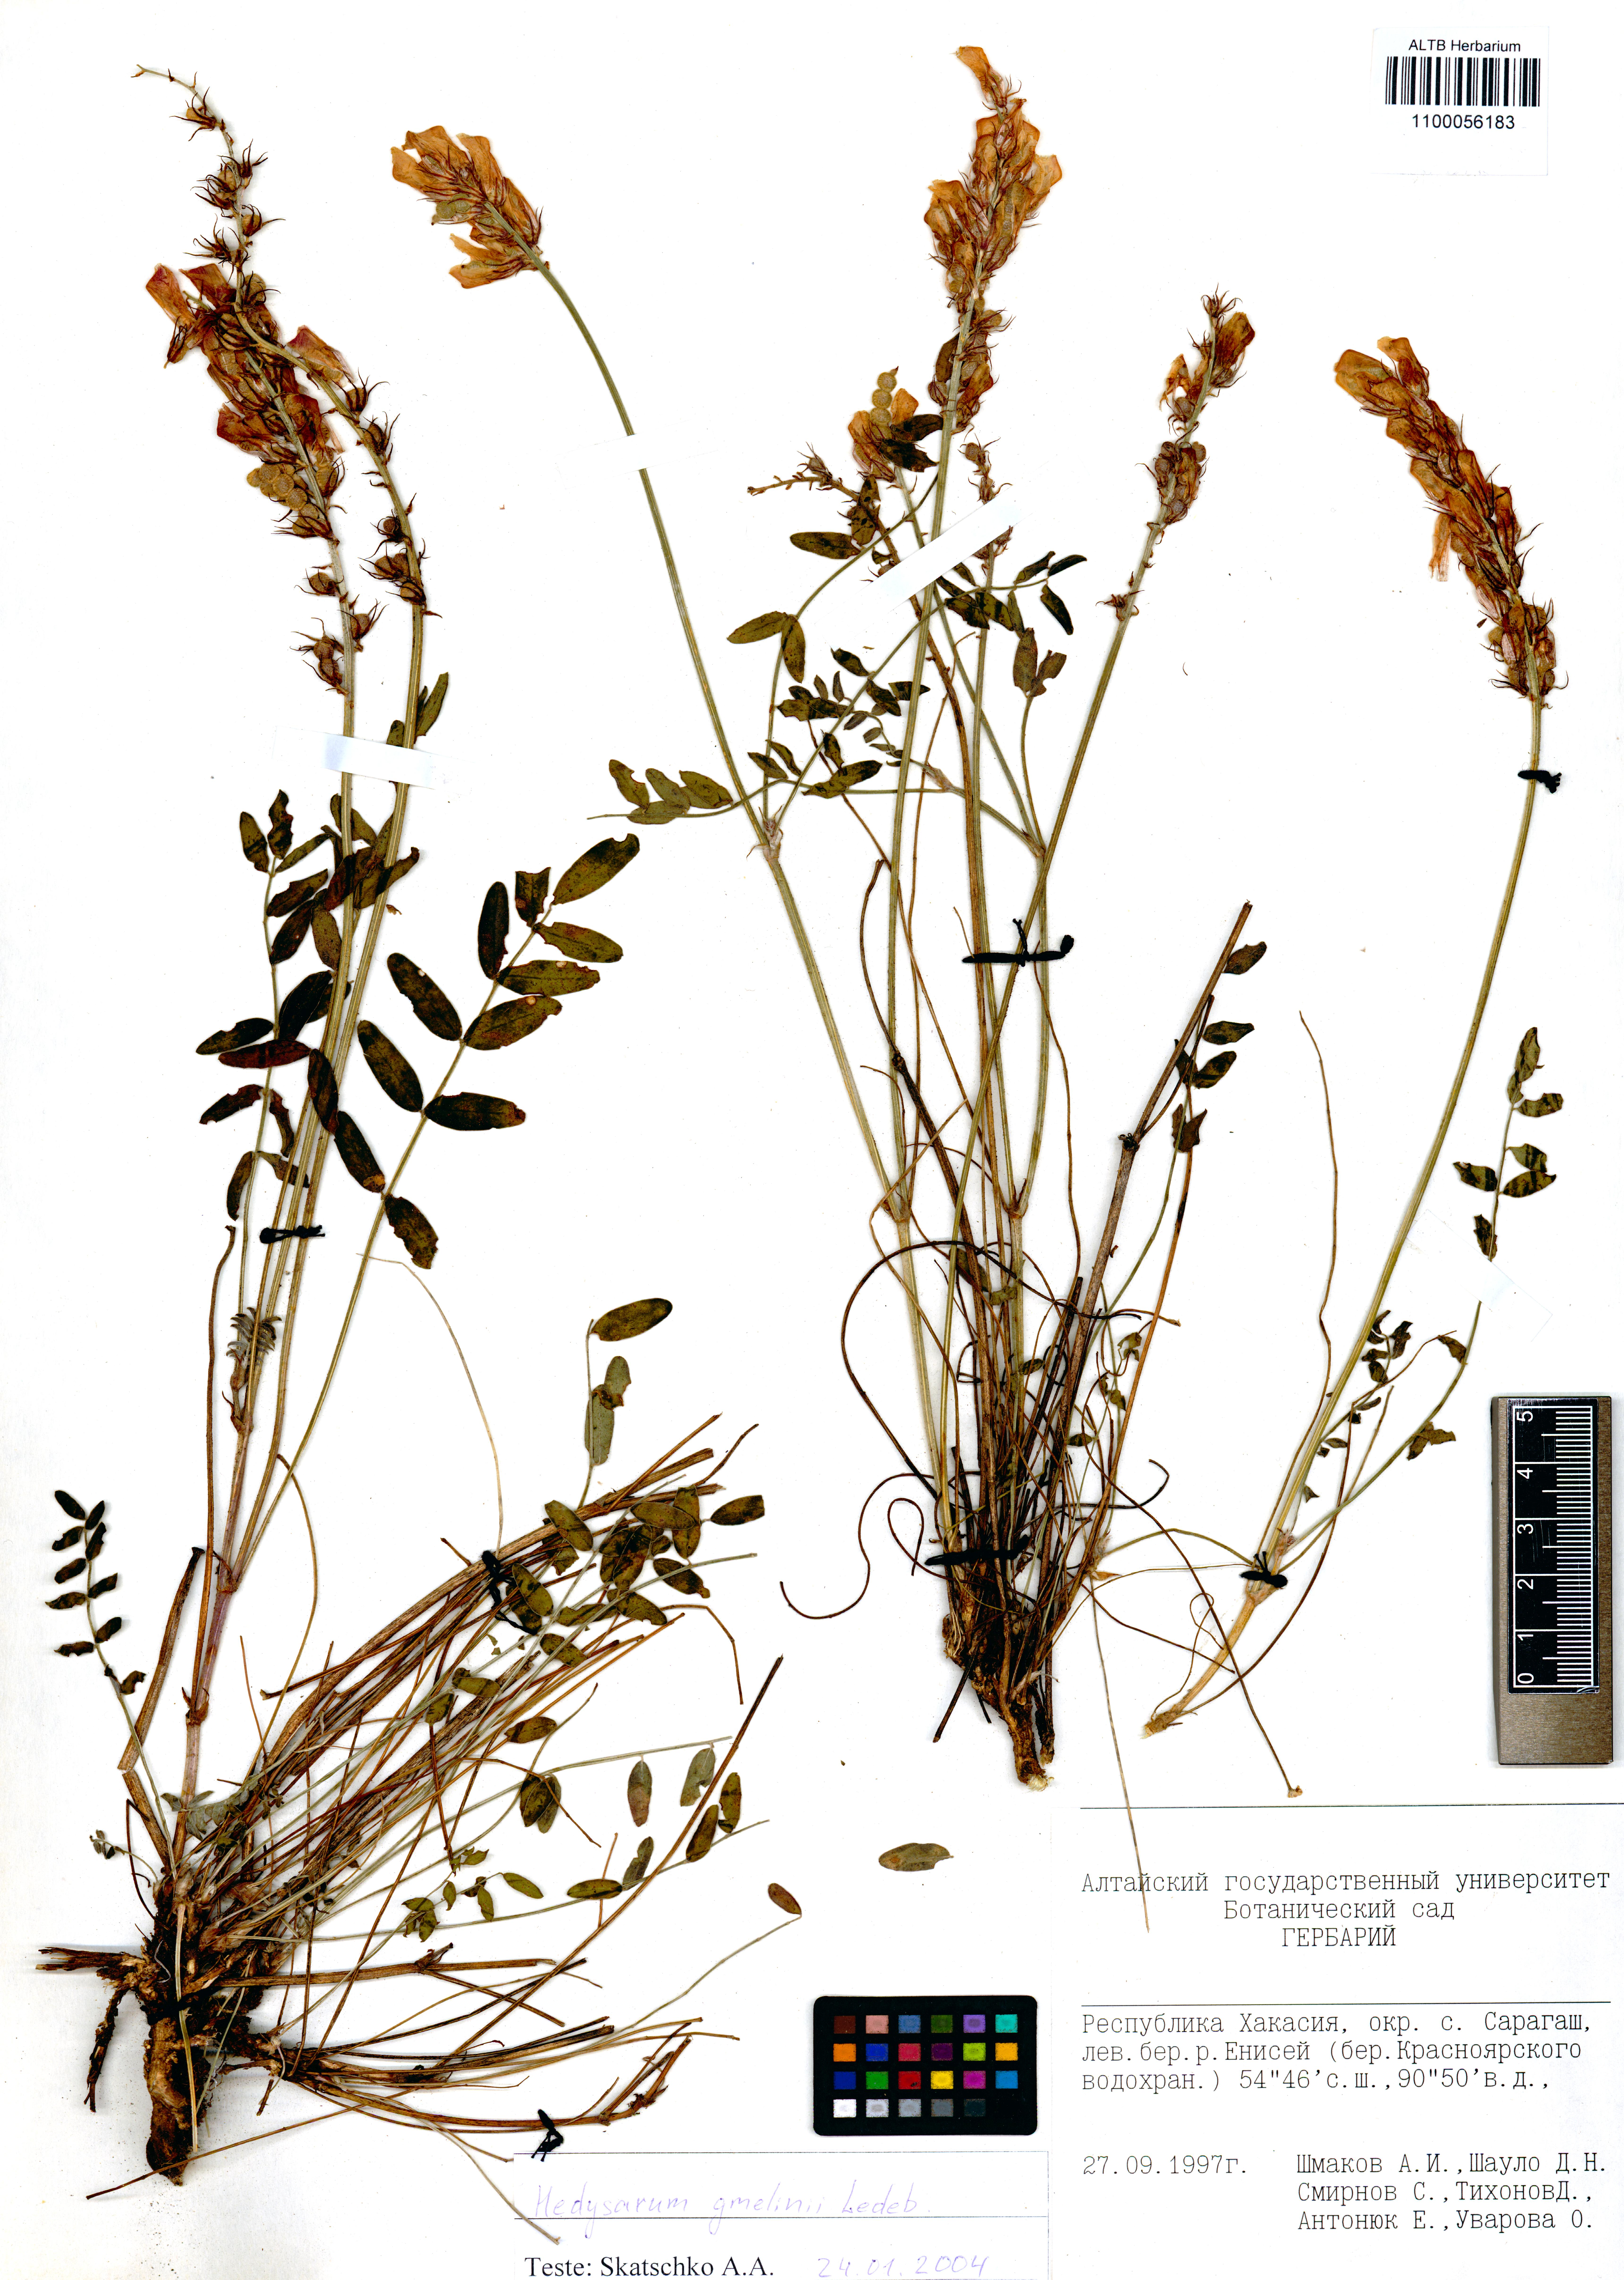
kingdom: Plantae
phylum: Tracheophyta
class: Magnoliopsida
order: Fabales
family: Fabaceae
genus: Hedysarum
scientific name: Hedysarum gmelinii
